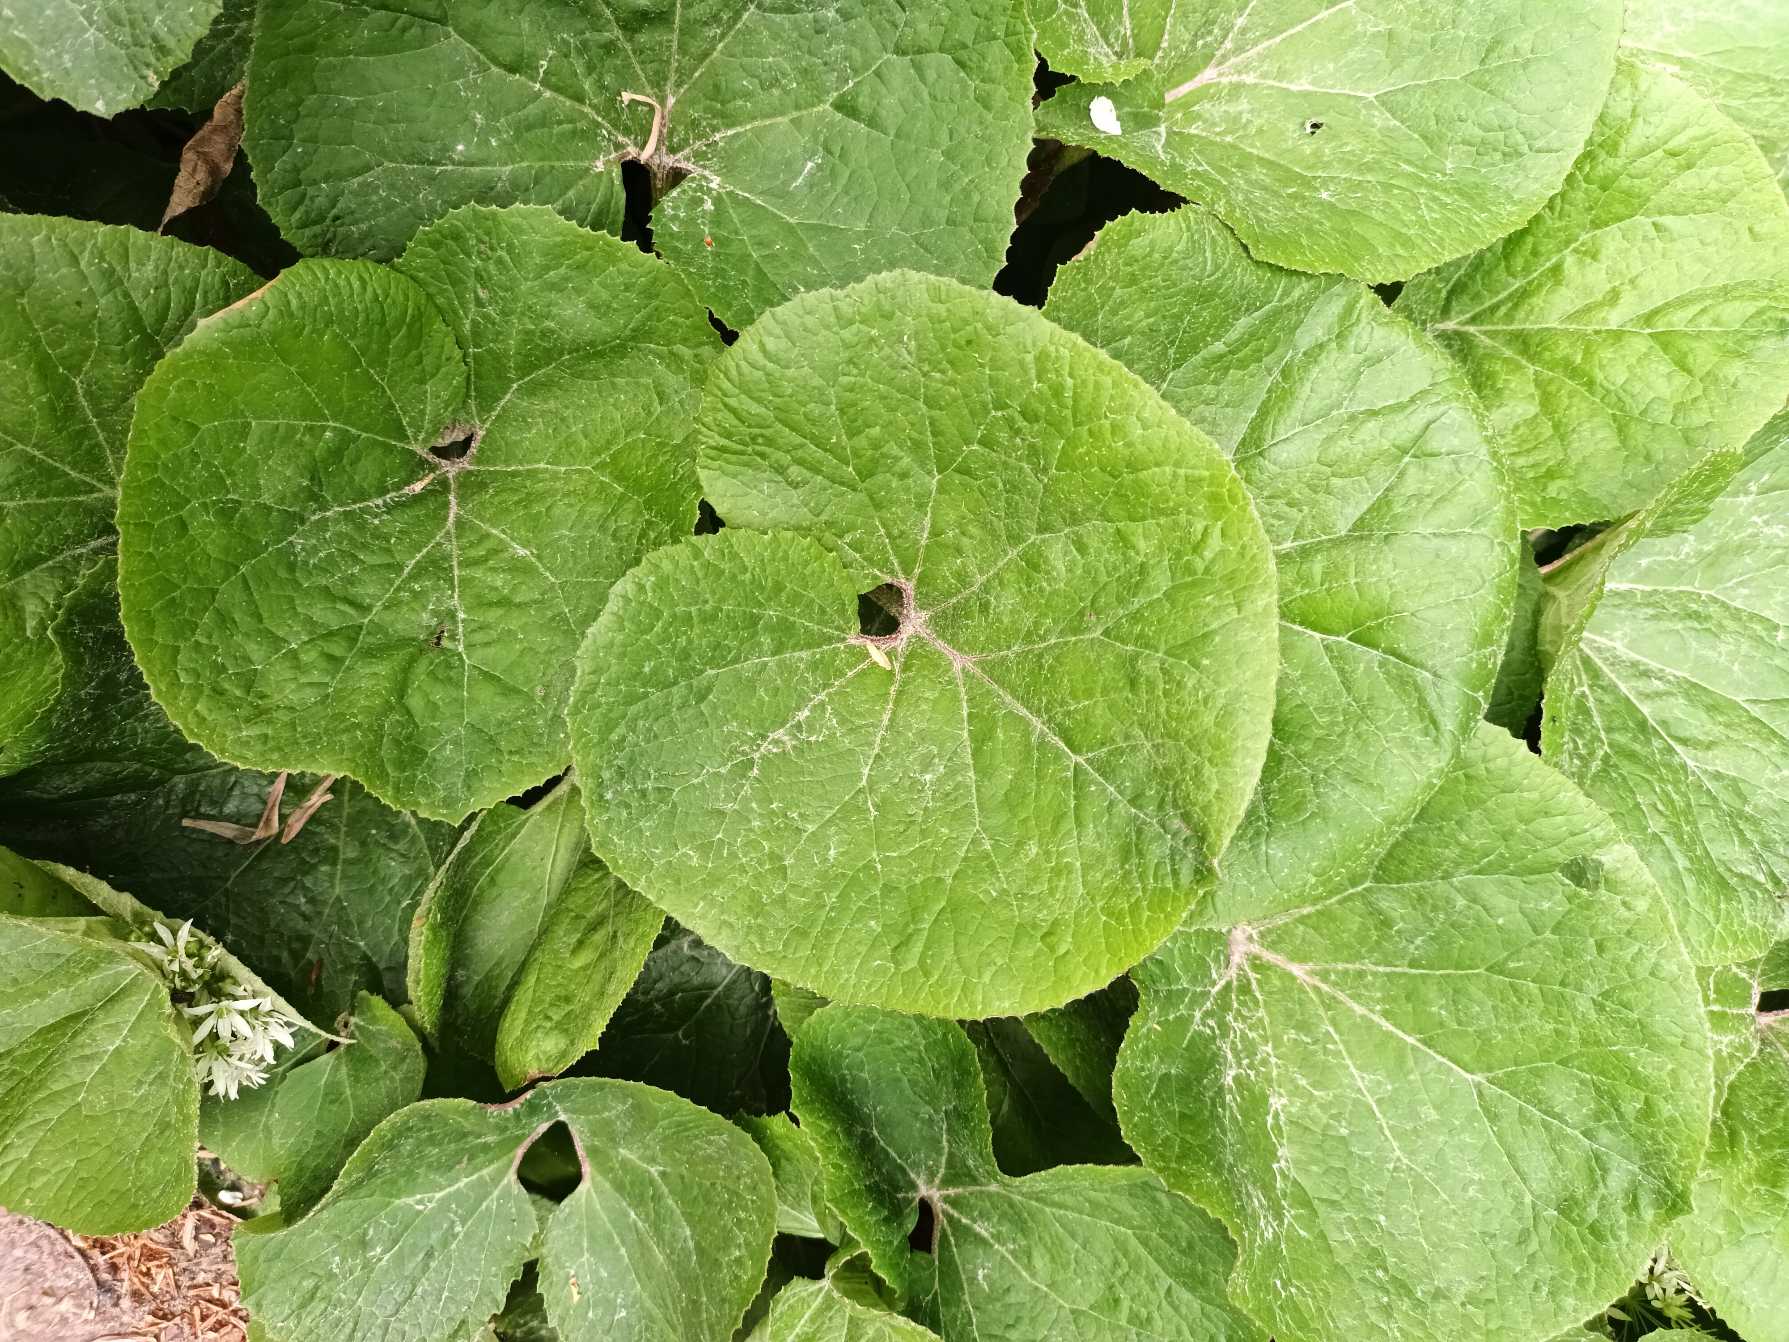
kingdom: Plantae
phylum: Tracheophyta
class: Magnoliopsida
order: Asterales
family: Asteraceae
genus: Petasites
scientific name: Petasites pyrenaicus
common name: Vellugtende hestehov
